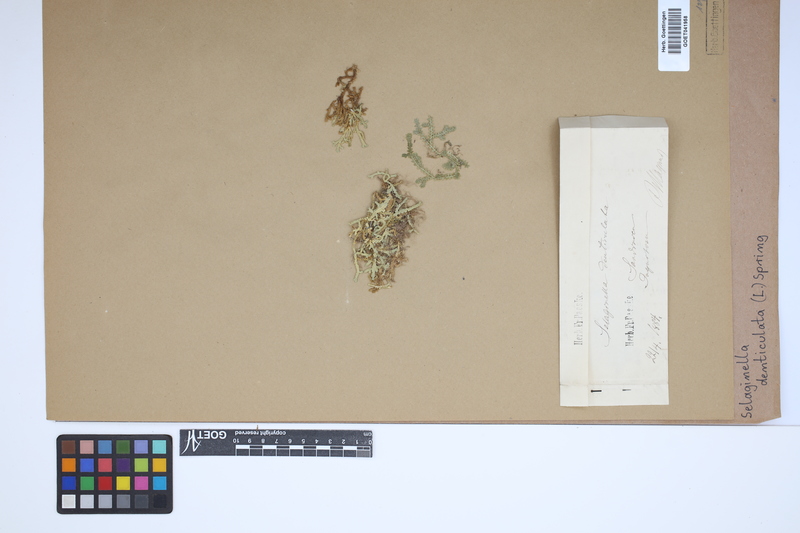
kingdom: Plantae
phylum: Tracheophyta
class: Lycopodiopsida
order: Selaginellales
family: Selaginellaceae
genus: Selaginella
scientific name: Selaginella denticulata
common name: Toothed-leaved clubmoss
